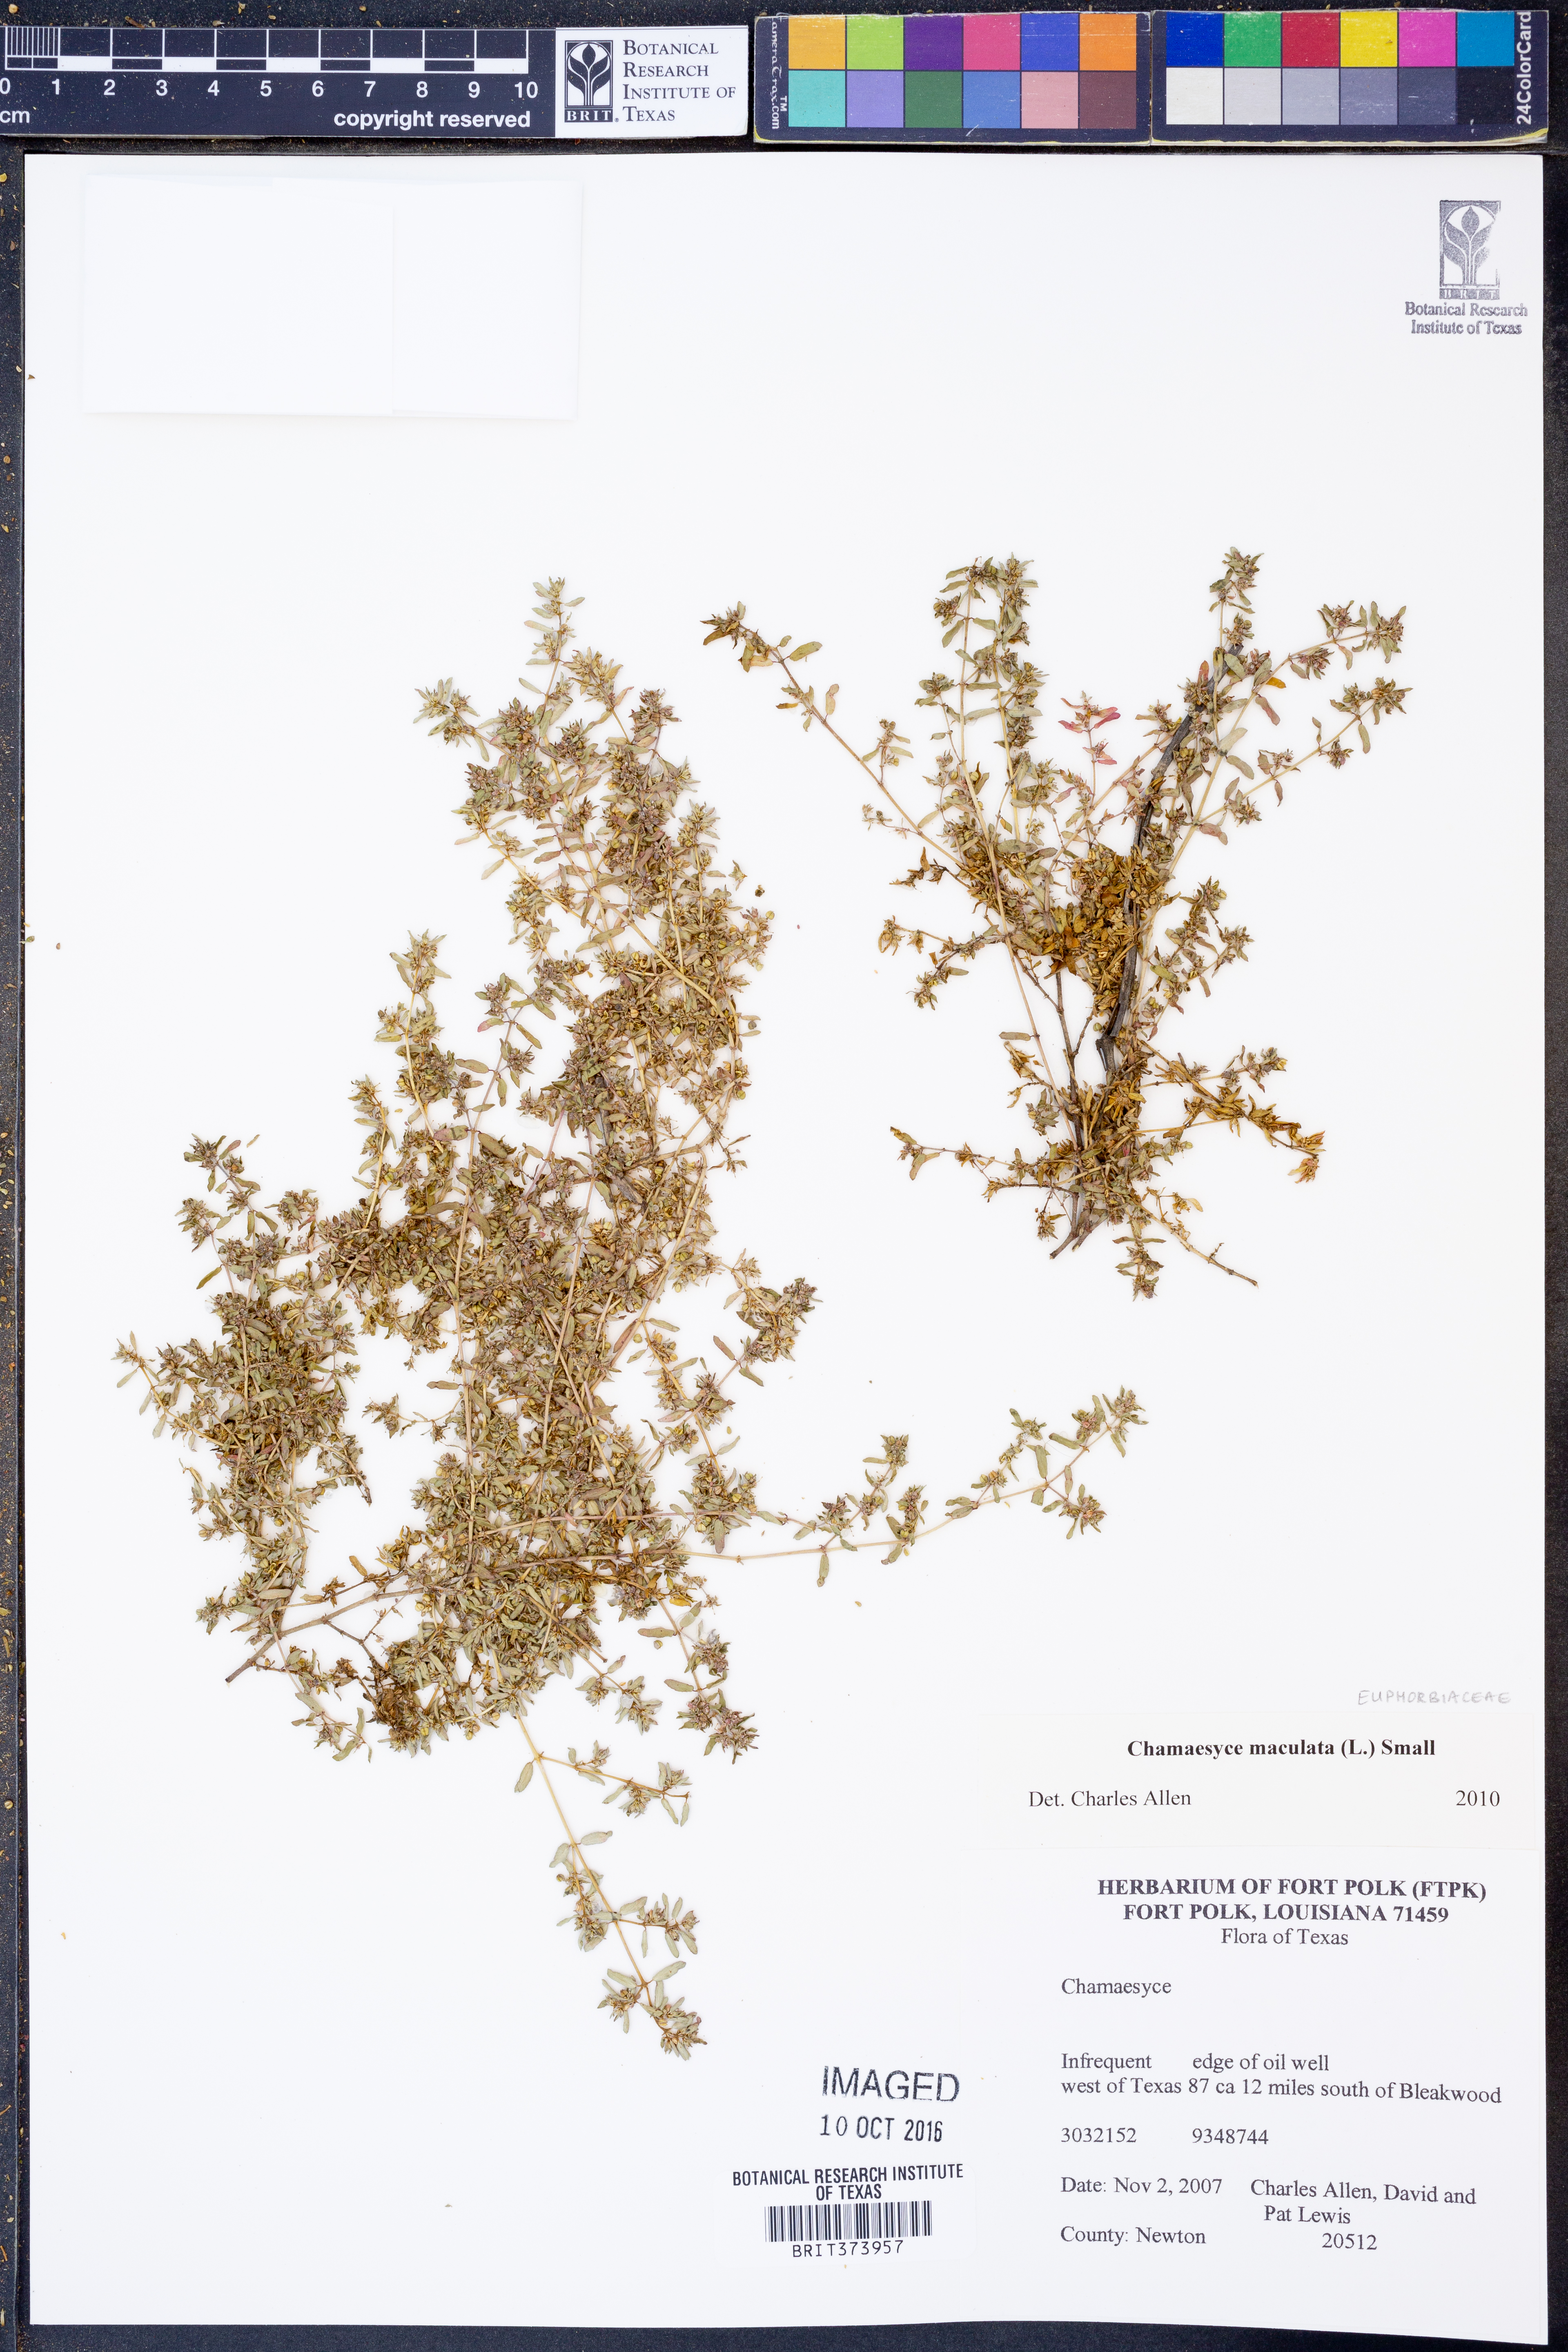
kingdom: Plantae
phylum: Tracheophyta
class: Magnoliopsida
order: Malpighiales
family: Euphorbiaceae
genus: Euphorbia
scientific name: Euphorbia maculata
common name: Spotted spurge
